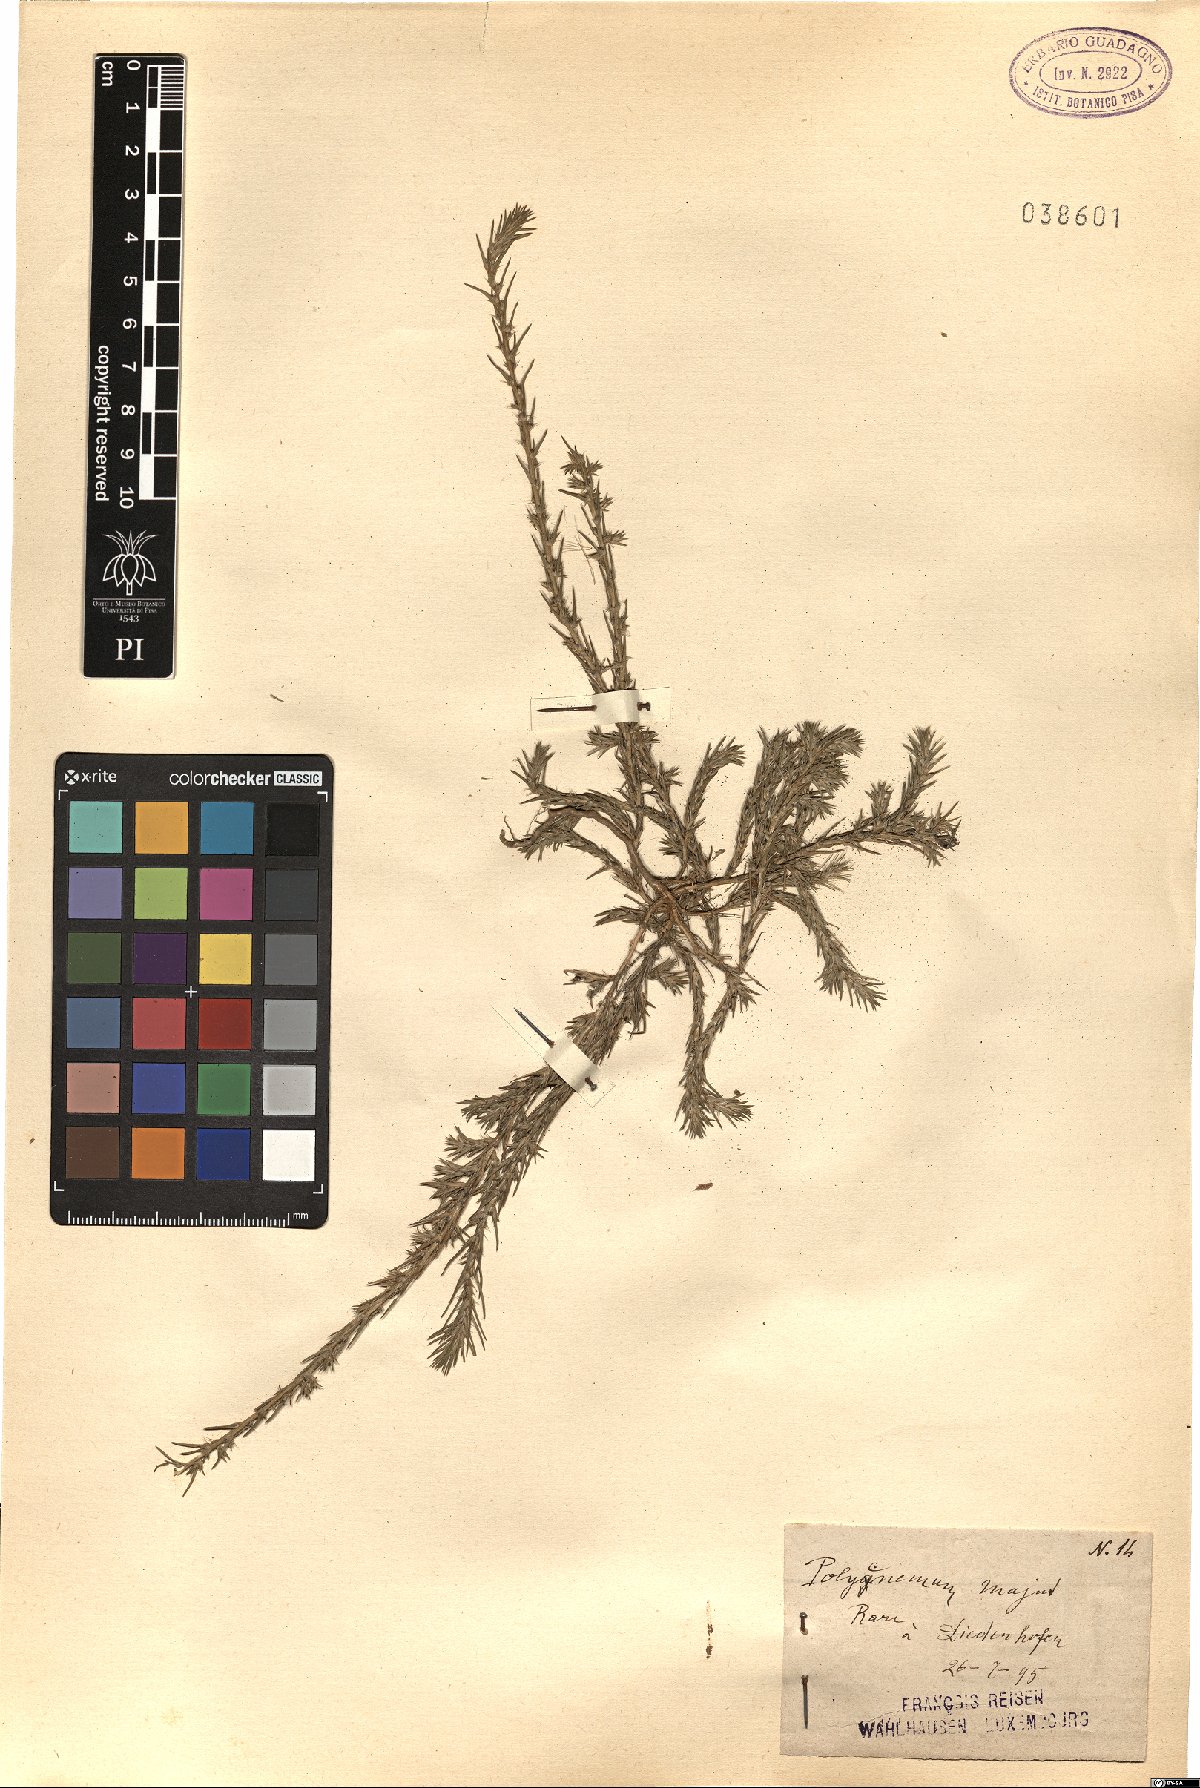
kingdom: Plantae
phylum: Tracheophyta
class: Magnoliopsida
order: Caryophyllales
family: Amaranthaceae
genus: Polycnemum
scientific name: Polycnemum majus
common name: Giant needleleaf
